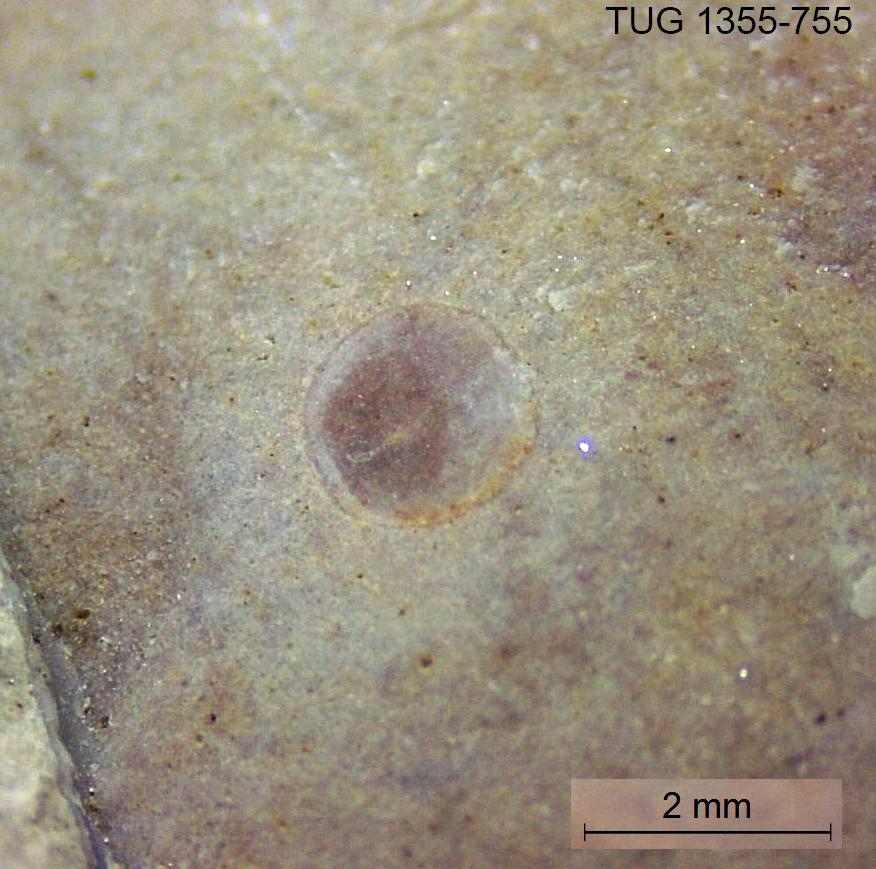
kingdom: Animalia
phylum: Brachiopoda
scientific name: Brachiopoda
